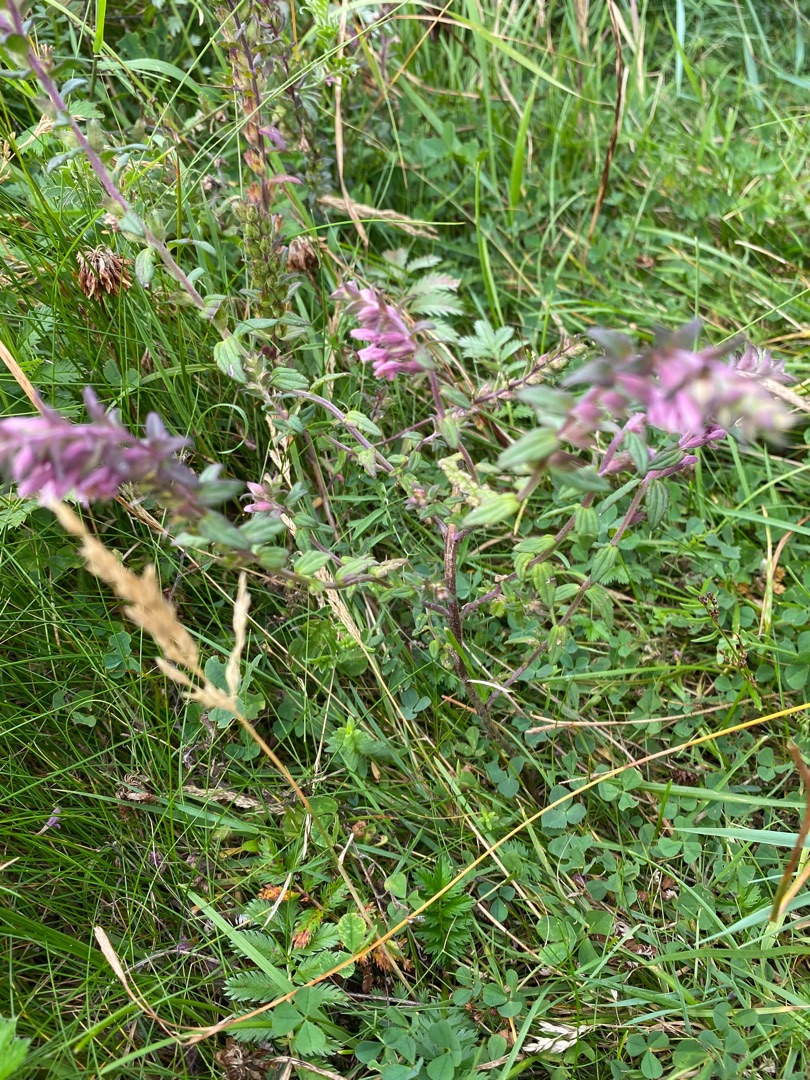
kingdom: Plantae
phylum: Tracheophyta
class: Magnoliopsida
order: Lamiales
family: Orobanchaceae
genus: Odontites
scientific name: Odontites vulgaris
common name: Høst-rødtop
